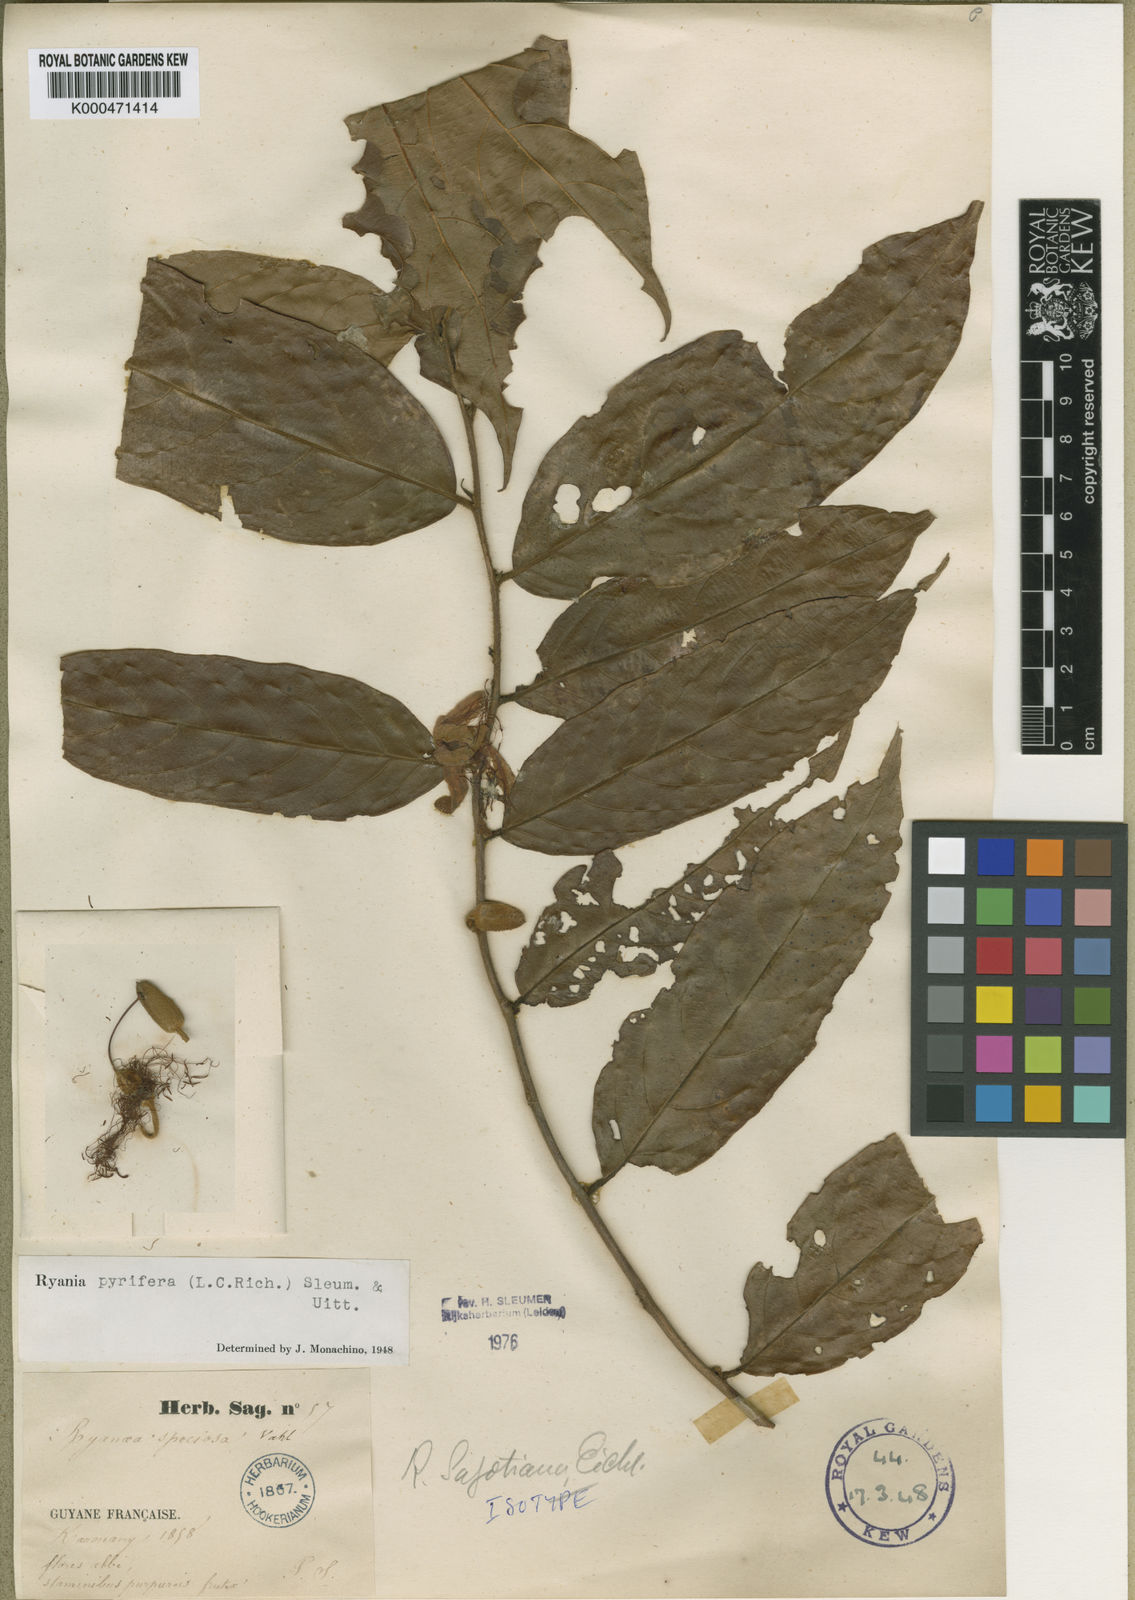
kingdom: Plantae
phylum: Tracheophyta
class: Magnoliopsida
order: Malpighiales
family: Salicaceae
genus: Ryania
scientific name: Ryania pyrifera
